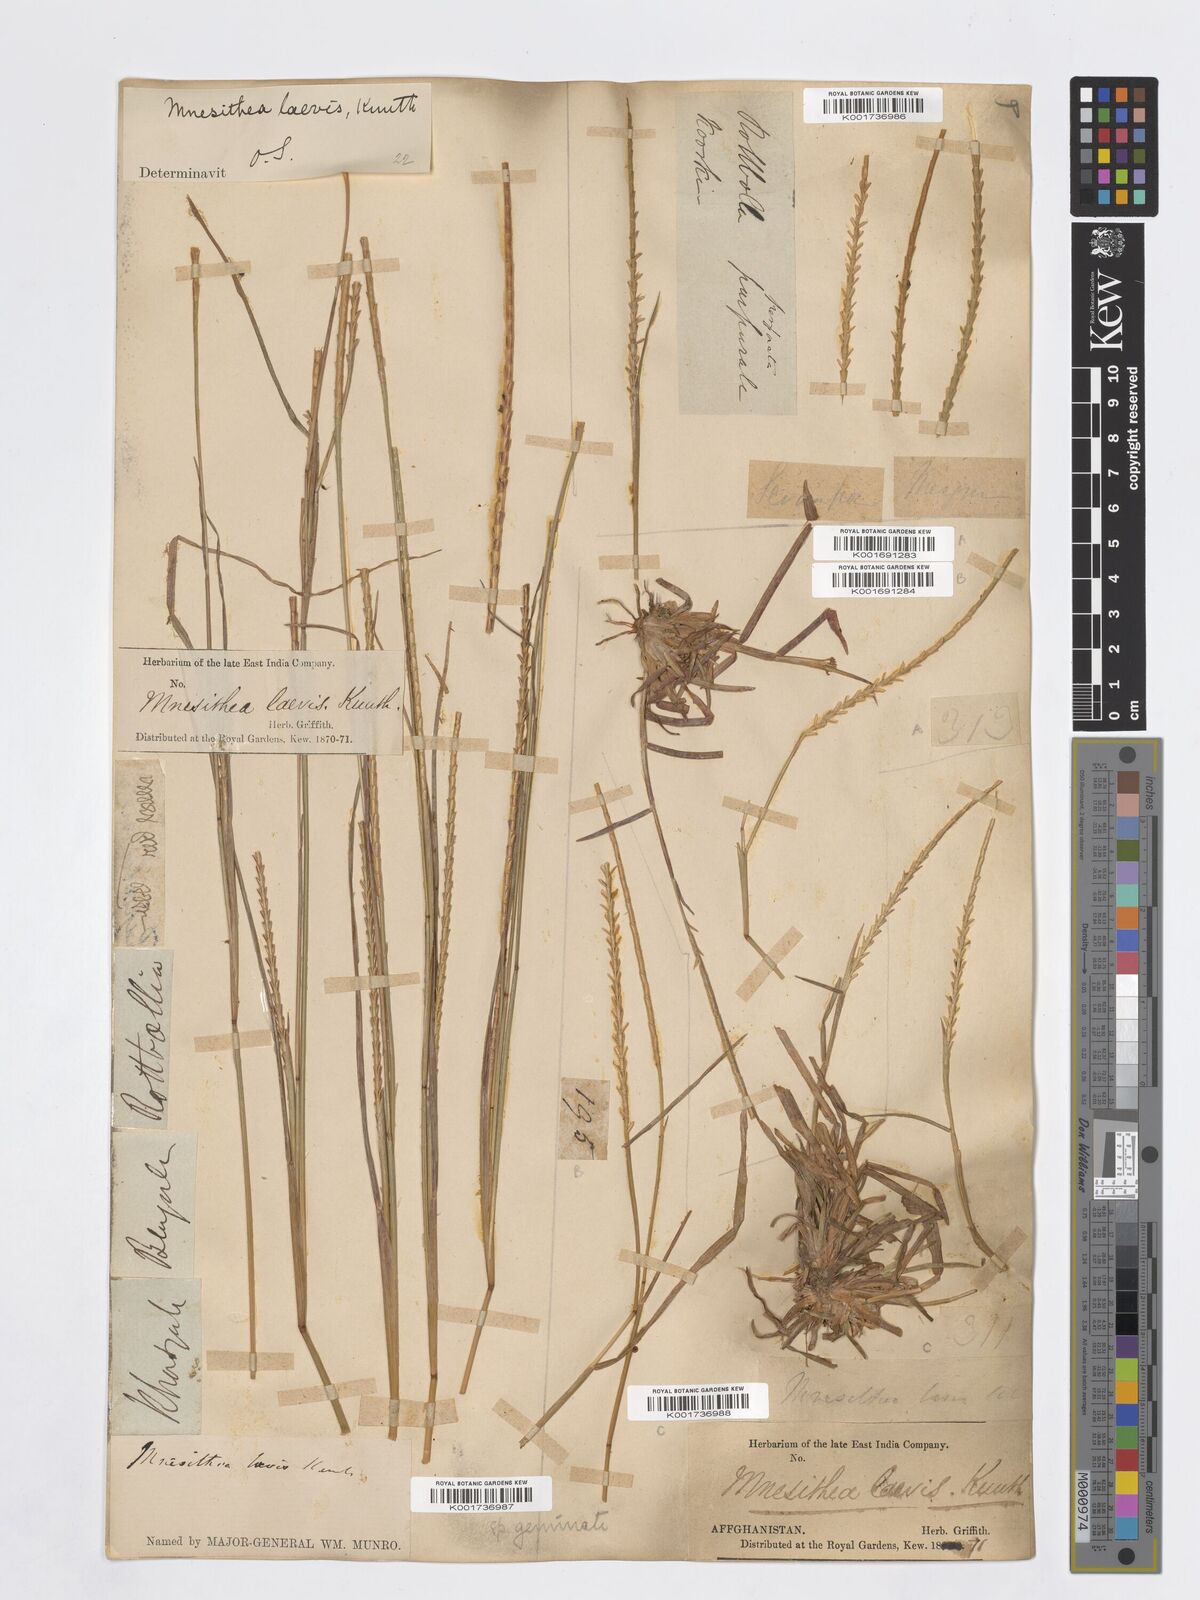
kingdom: Plantae
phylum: Tracheophyta
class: Liliopsida
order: Poales
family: Poaceae
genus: Mnesithea
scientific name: Mnesithea laevis
